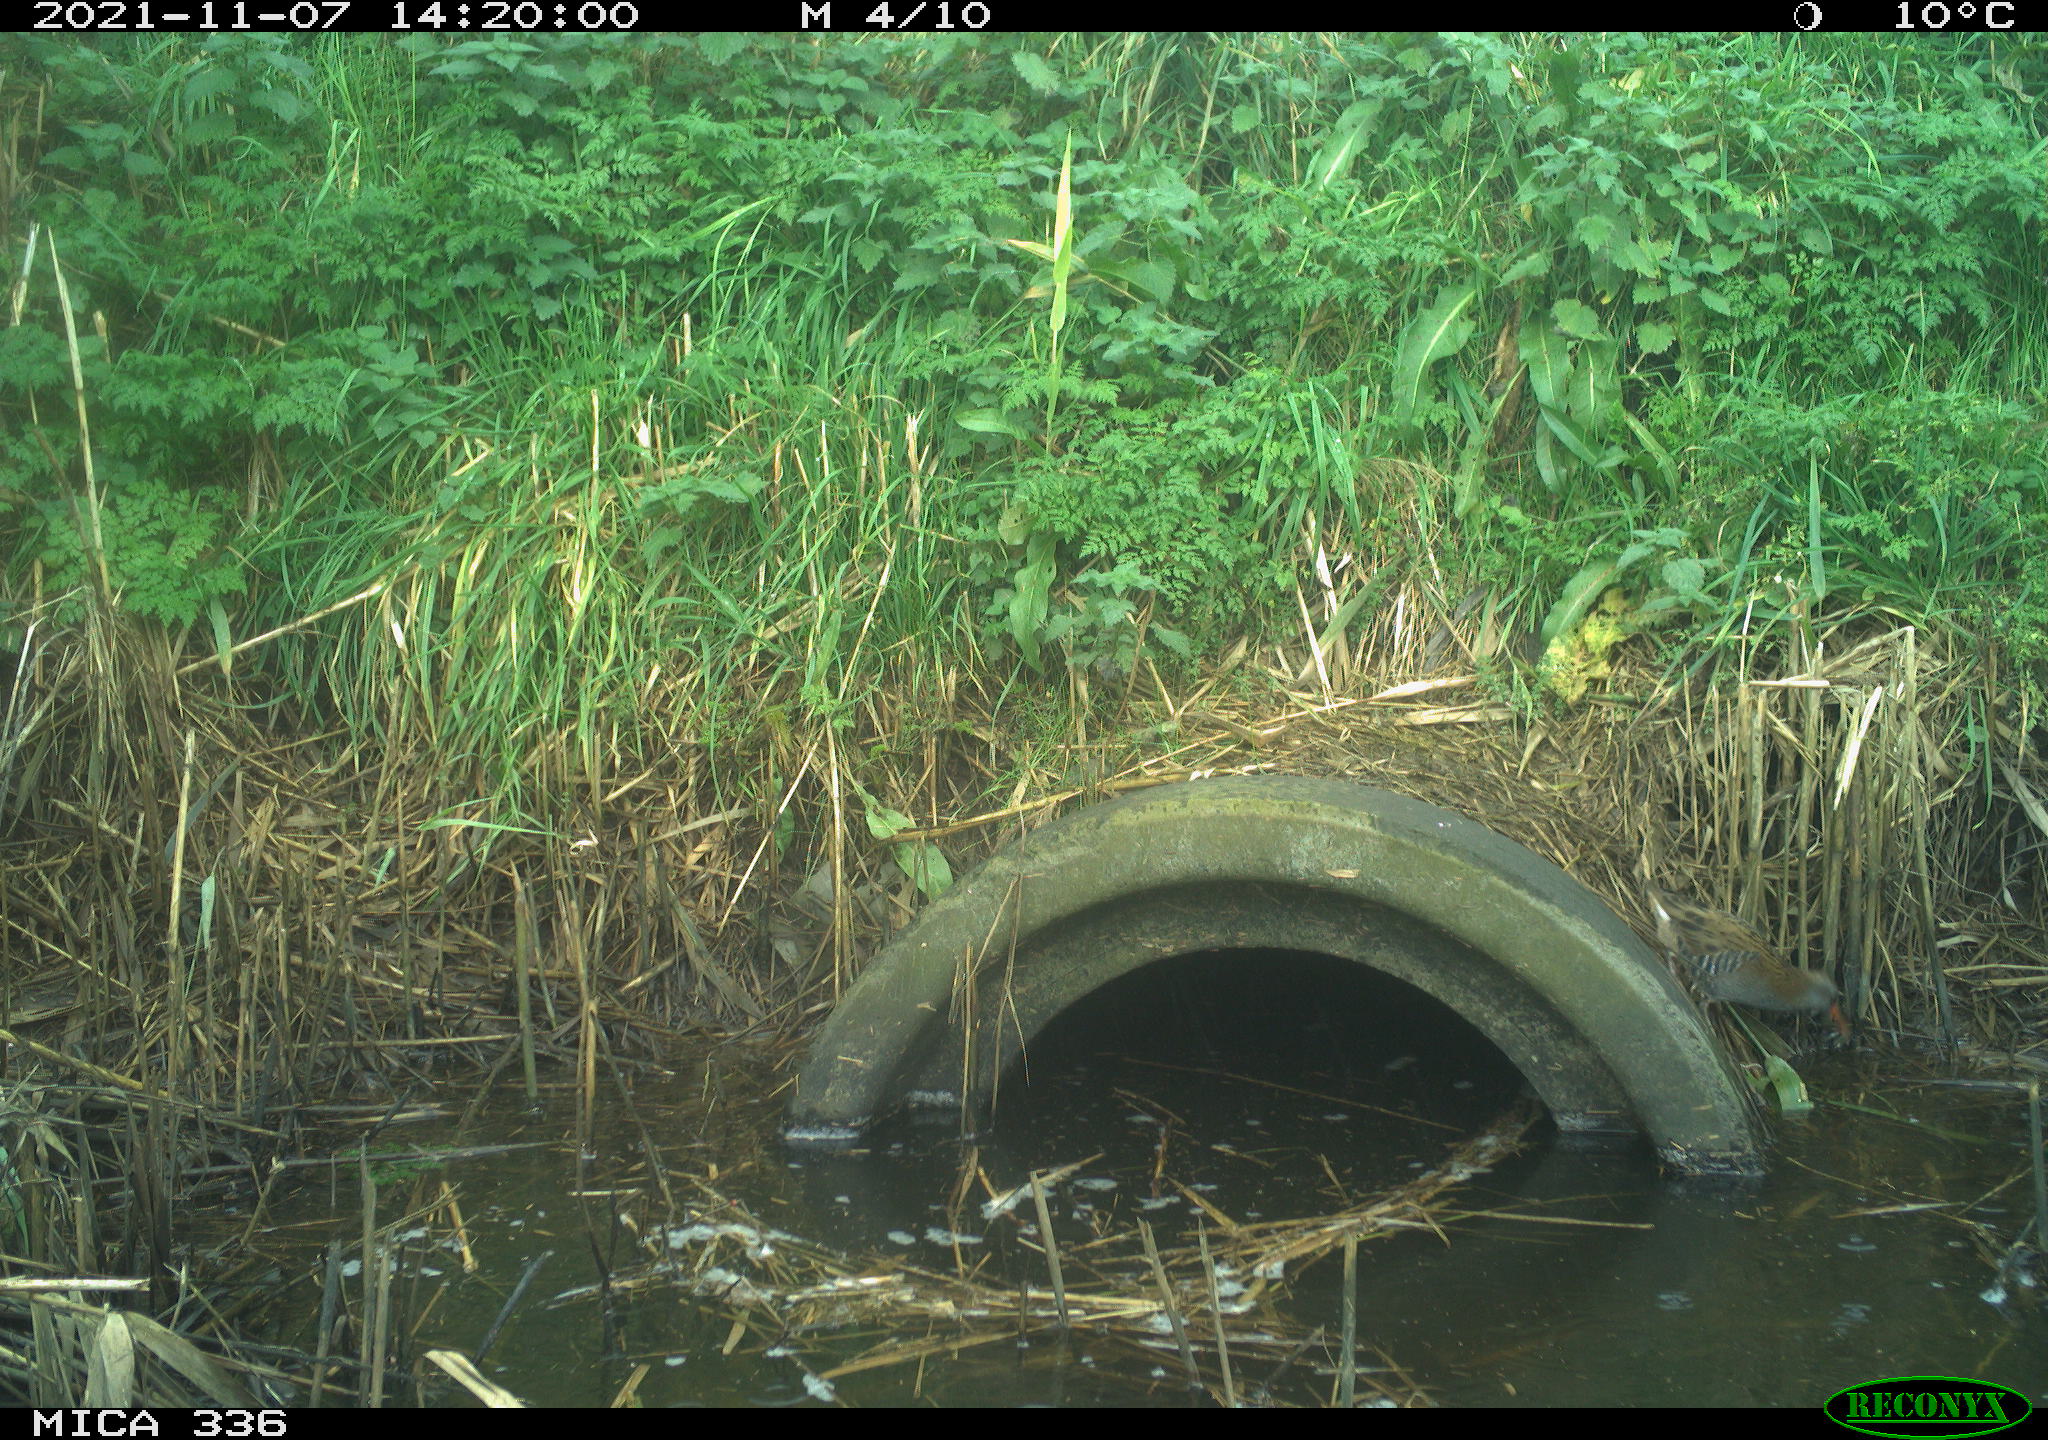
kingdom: Animalia
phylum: Chordata
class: Aves
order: Gruiformes
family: Rallidae
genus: Gallinula
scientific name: Gallinula chloropus
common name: Common moorhen
